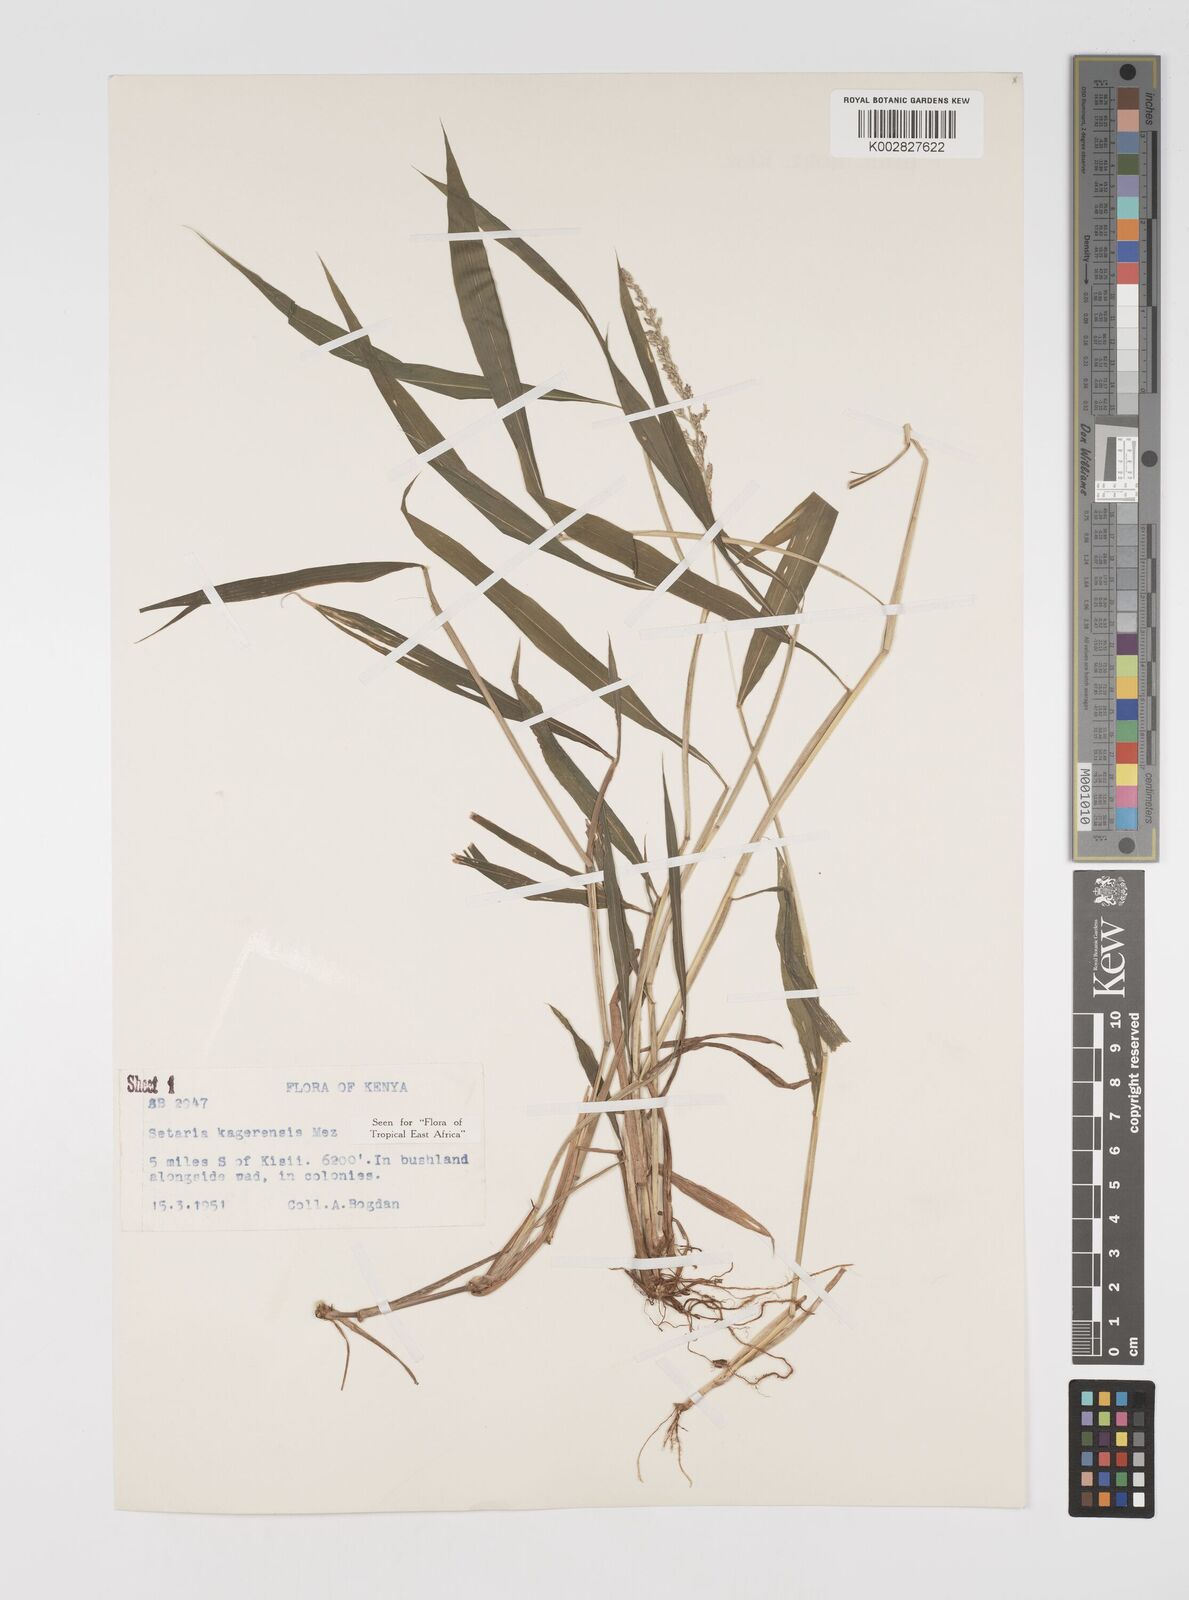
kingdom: Plantae
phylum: Tracheophyta
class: Liliopsida
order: Poales
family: Poaceae
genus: Setaria
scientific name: Setaria kagerensis
